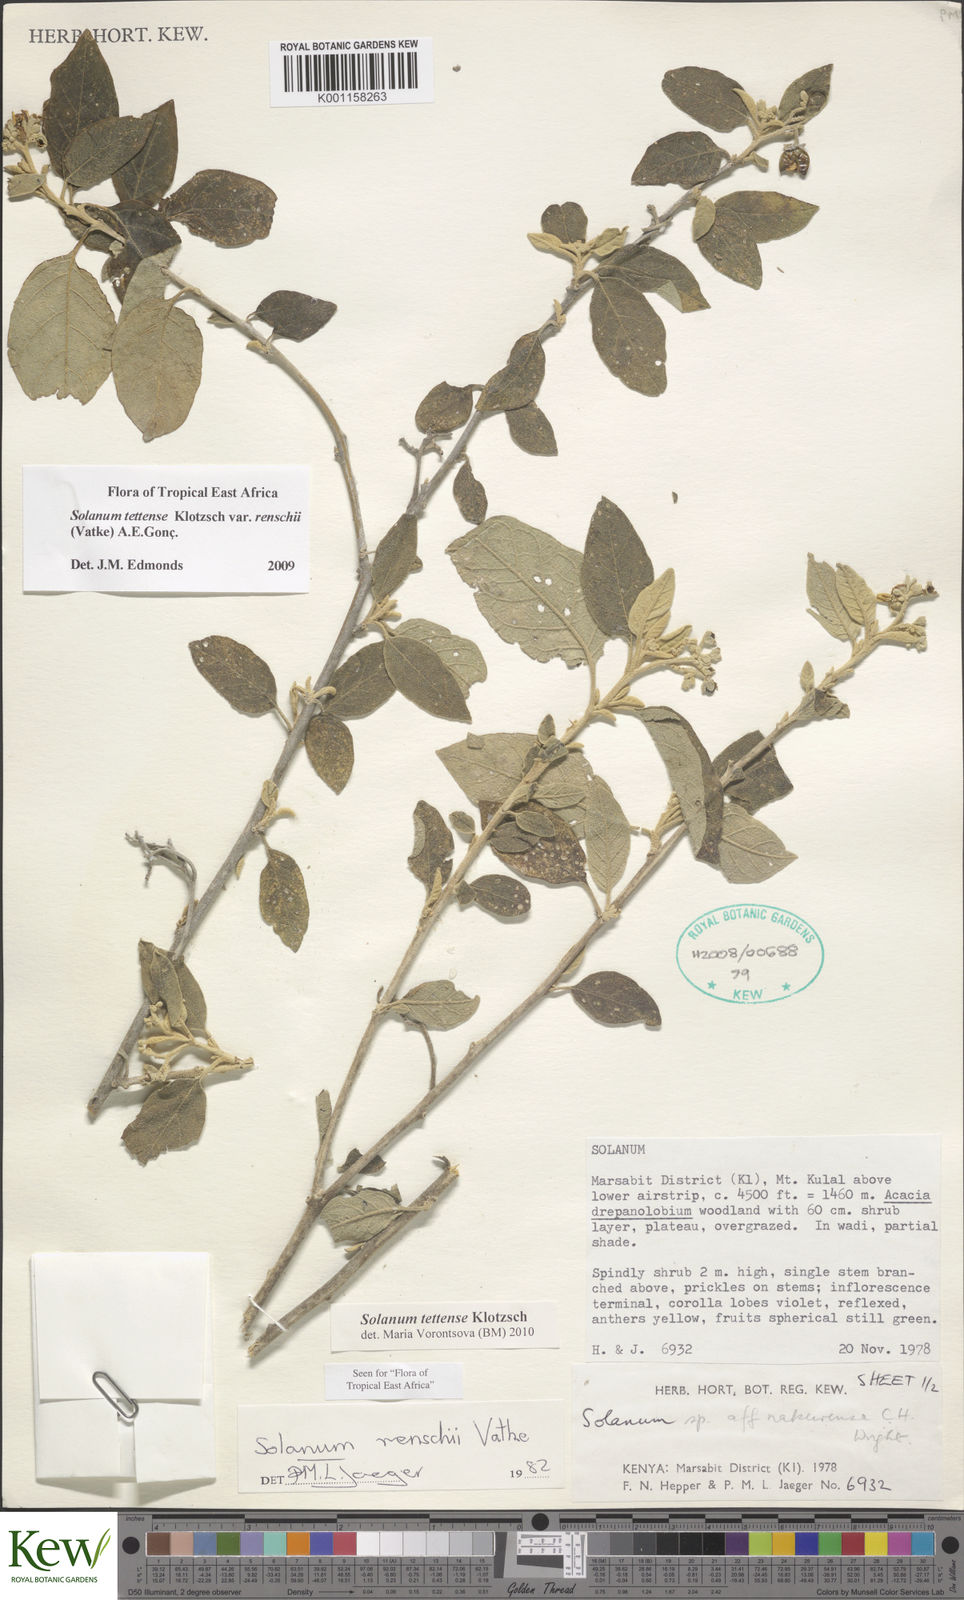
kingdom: Plantae
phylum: Tracheophyta
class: Magnoliopsida
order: Solanales
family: Solanaceae
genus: Solanum
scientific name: Solanum tettense
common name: Mozambique bitter apple
